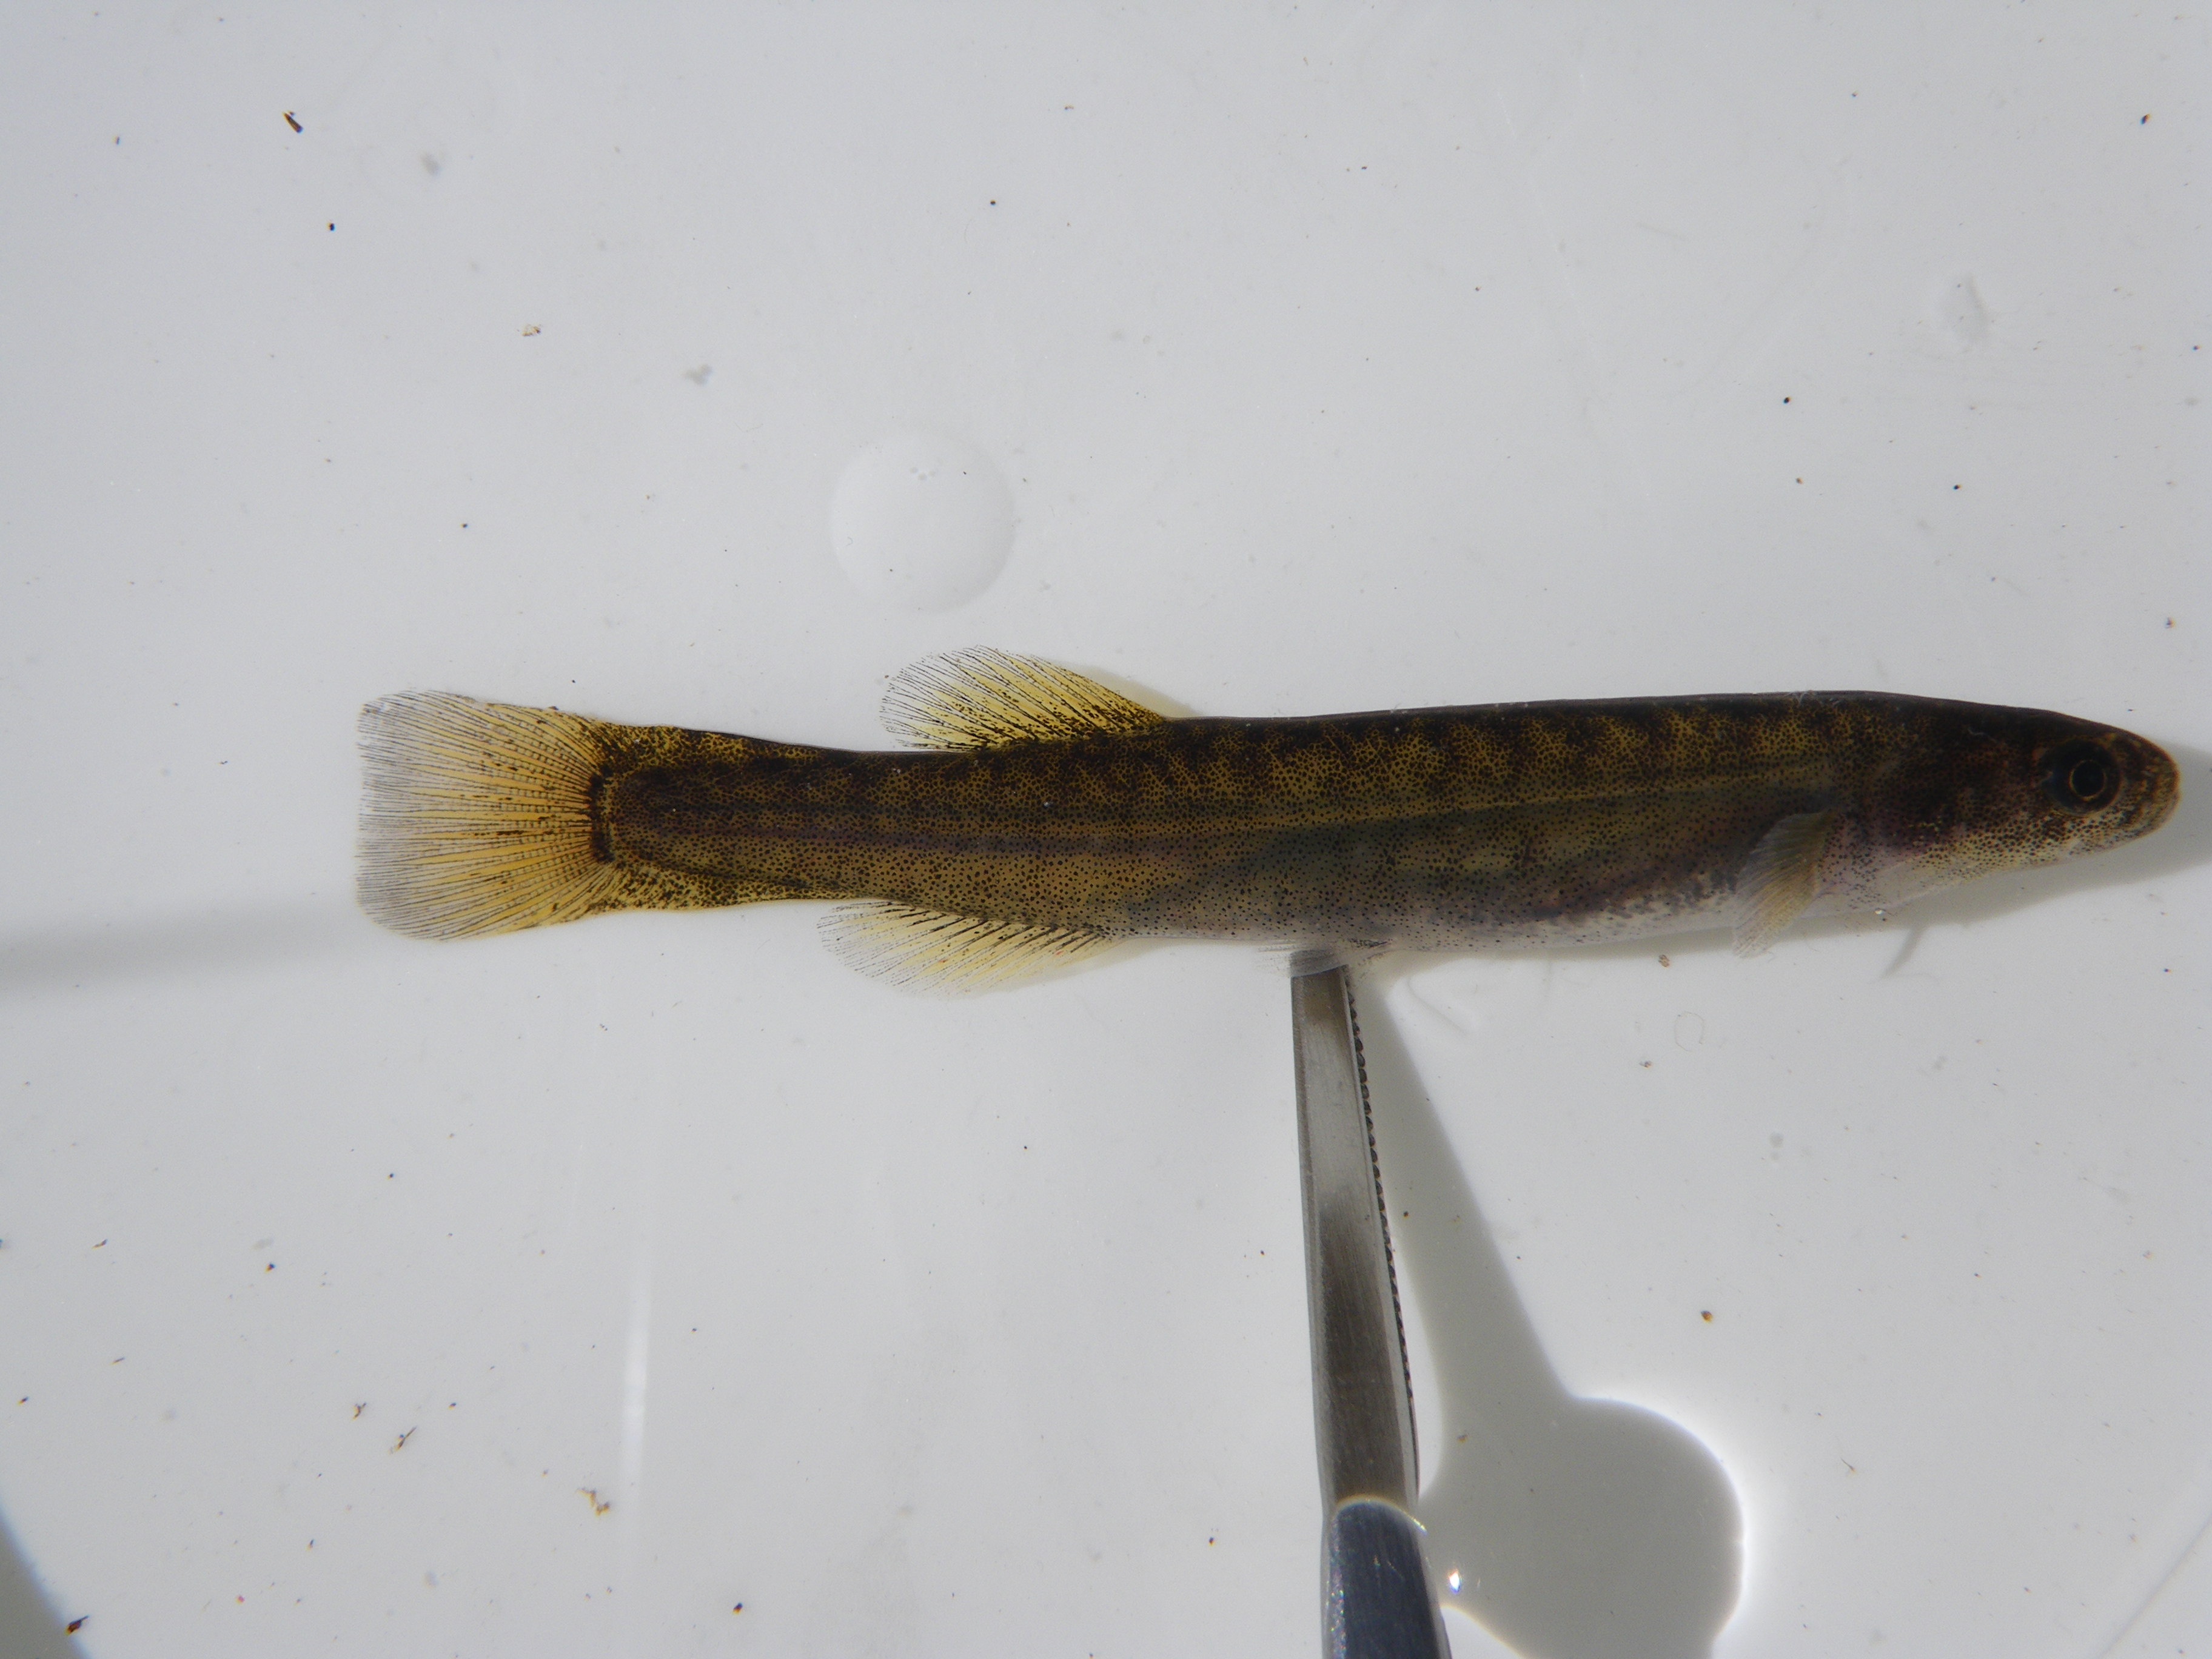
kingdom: Animalia
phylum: Chordata
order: Osmeriformes
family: Galaxiidae
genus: Galaxias
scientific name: Galaxias
